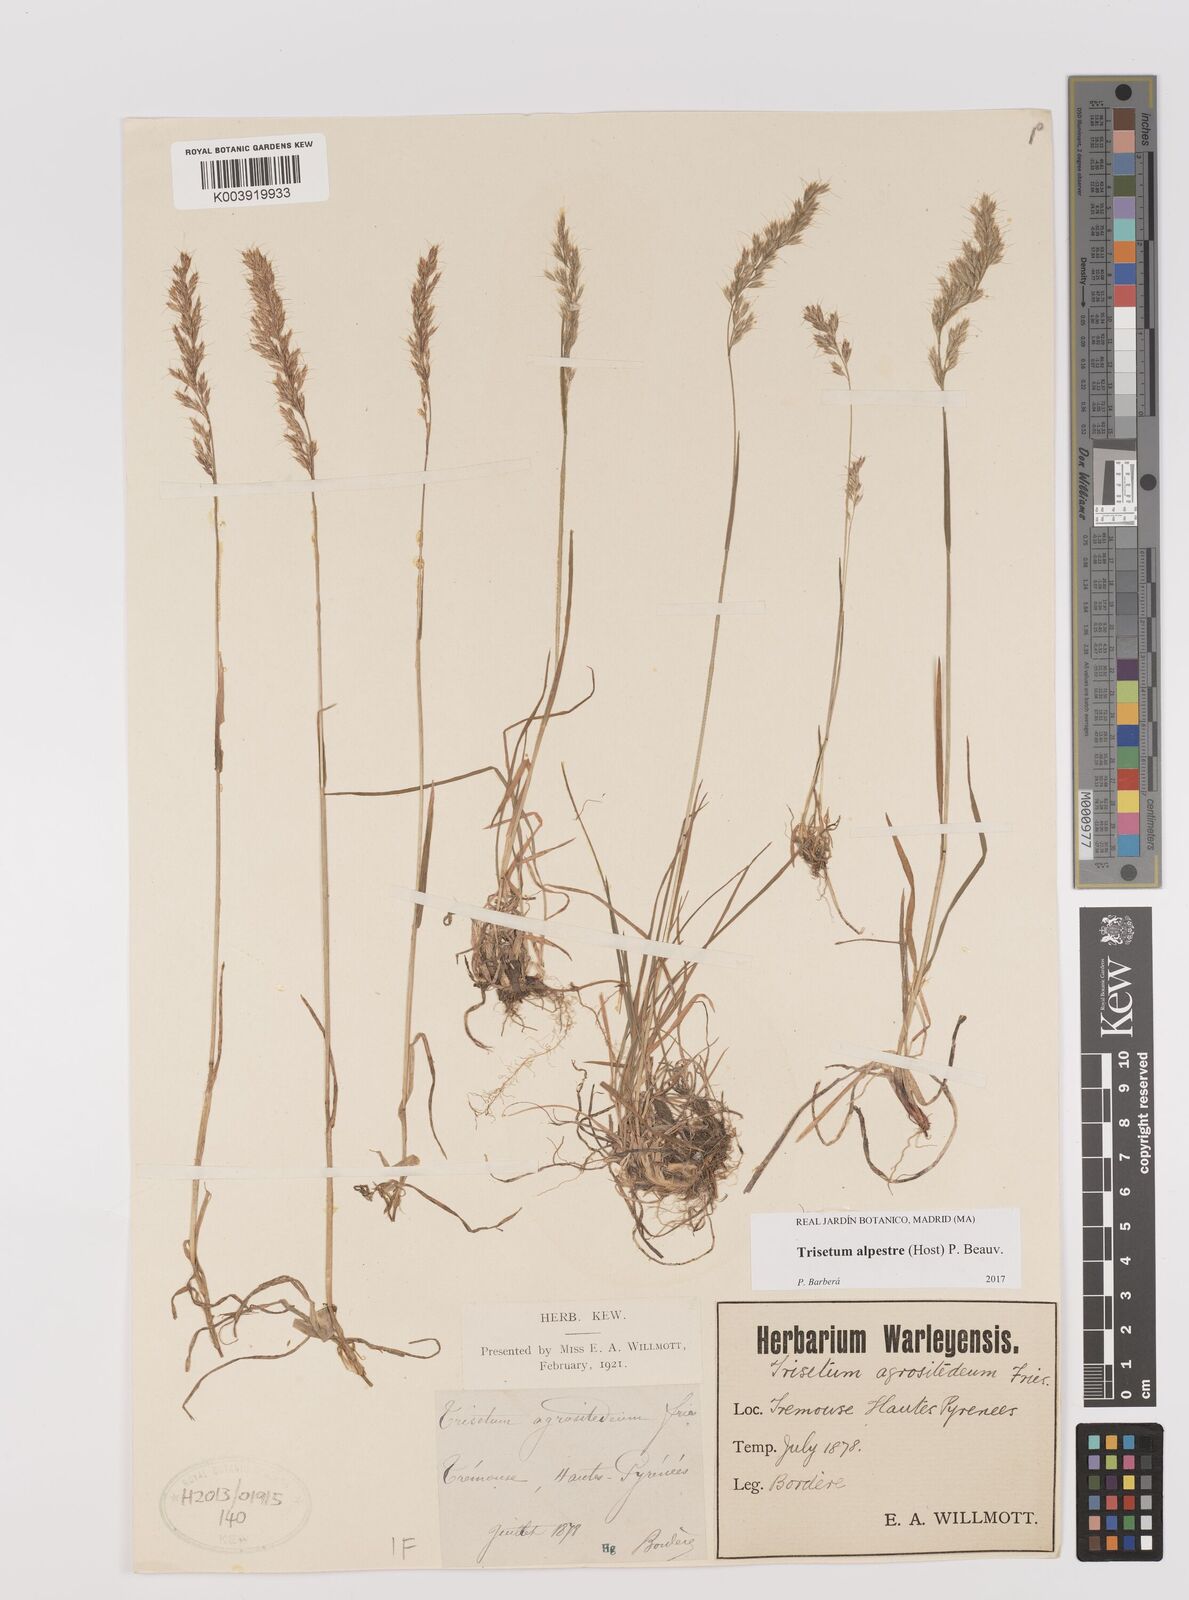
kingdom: Plantae
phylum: Tracheophyta
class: Liliopsida
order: Poales
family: Poaceae
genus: Trisetum
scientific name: Trisetum alpestre
